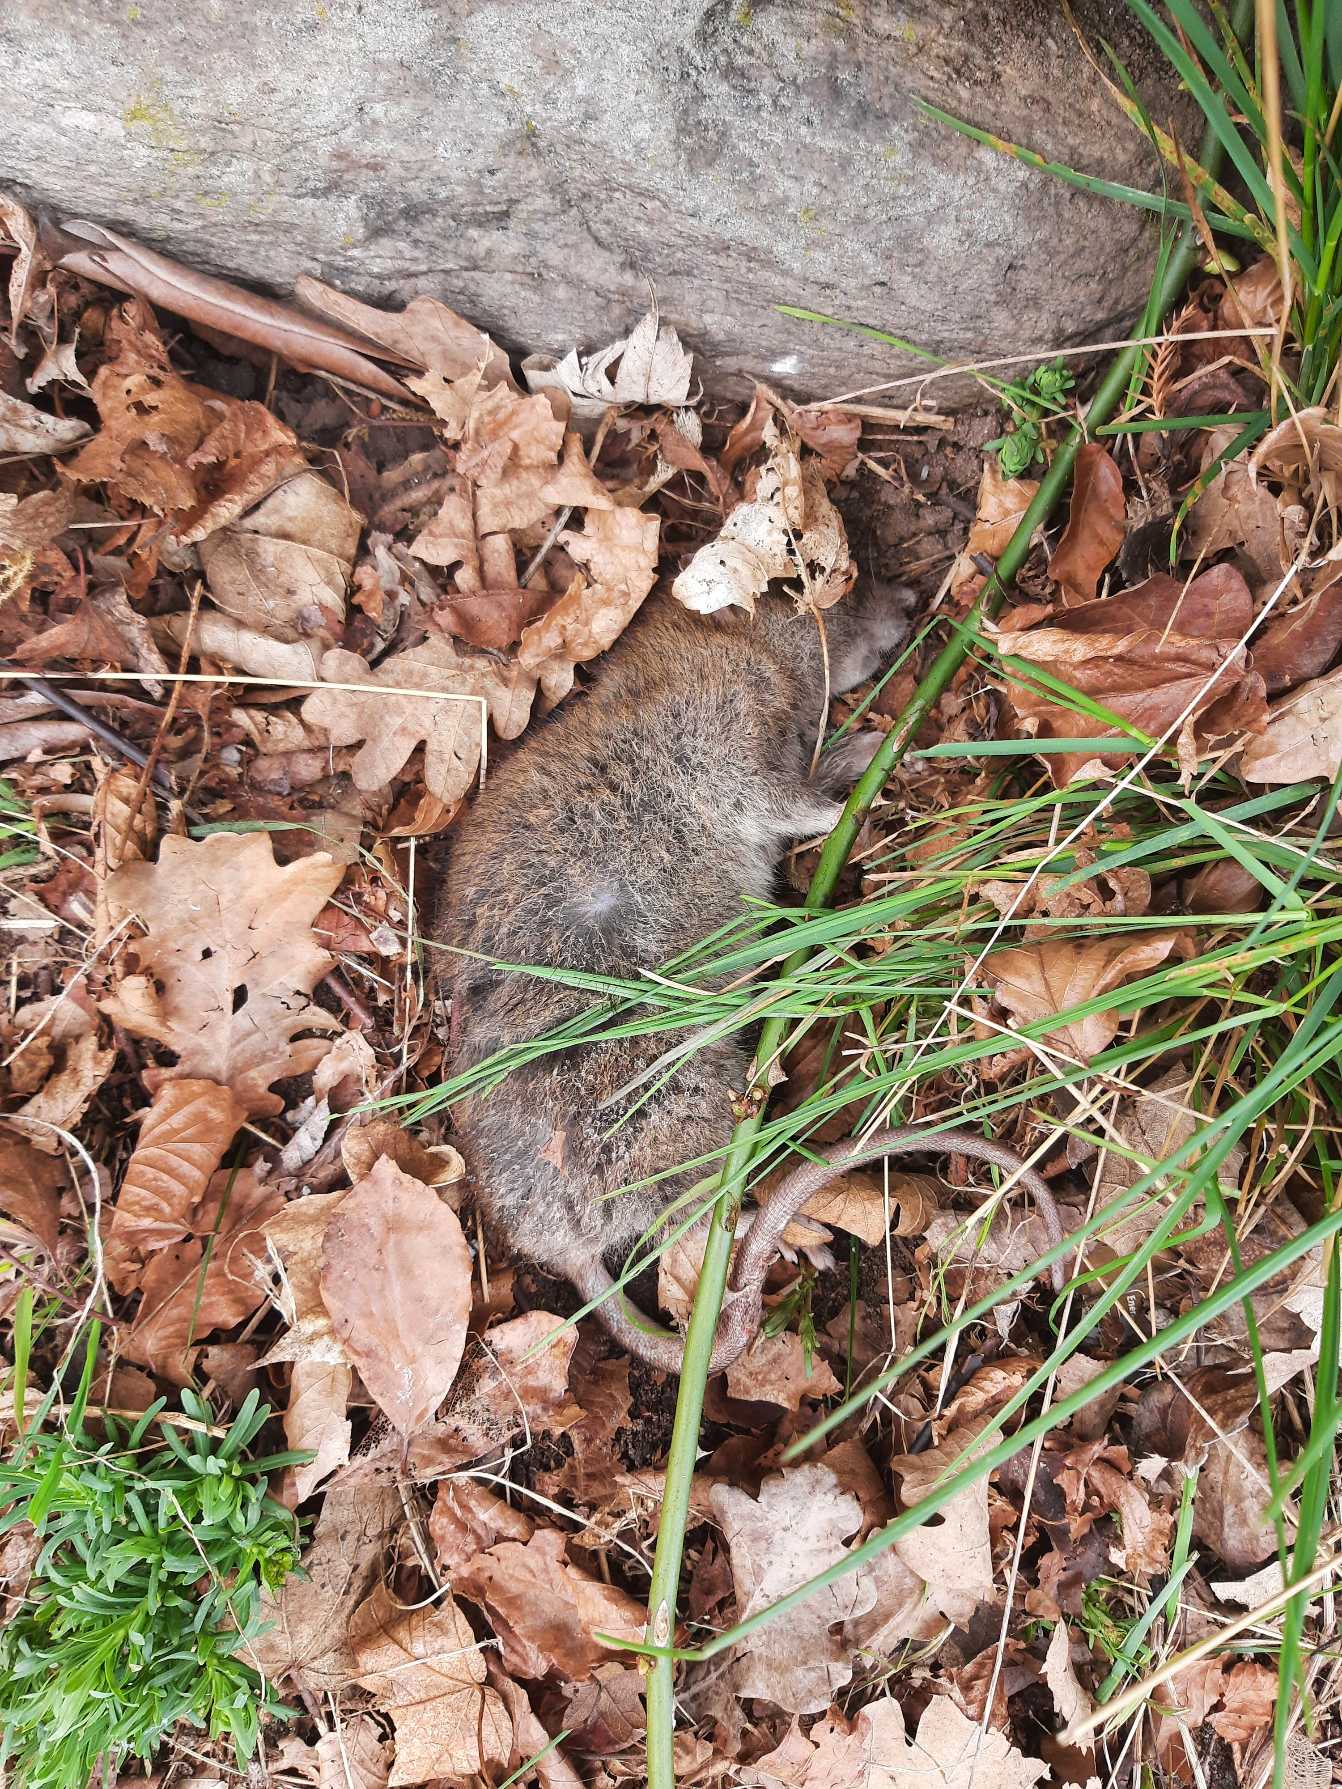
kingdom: Animalia
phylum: Chordata
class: Mammalia
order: Rodentia
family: Muridae
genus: Rattus
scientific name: Rattus norvegicus
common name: Brun rotte
